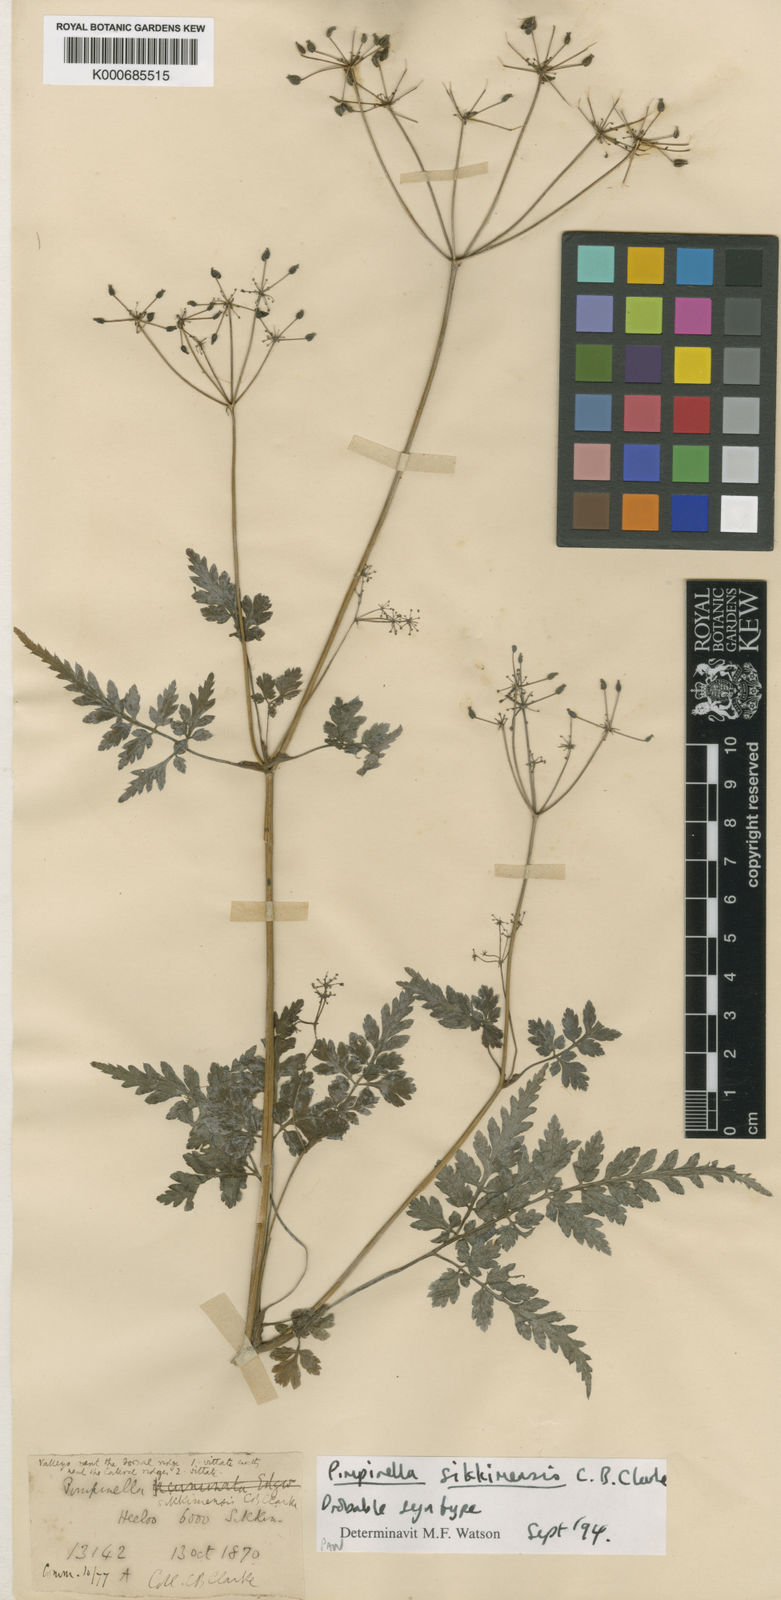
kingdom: Plantae
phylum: Tracheophyta
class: Magnoliopsida
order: Apiales
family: Apiaceae
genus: Pimpinella
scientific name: Pimpinella sikkimensis
